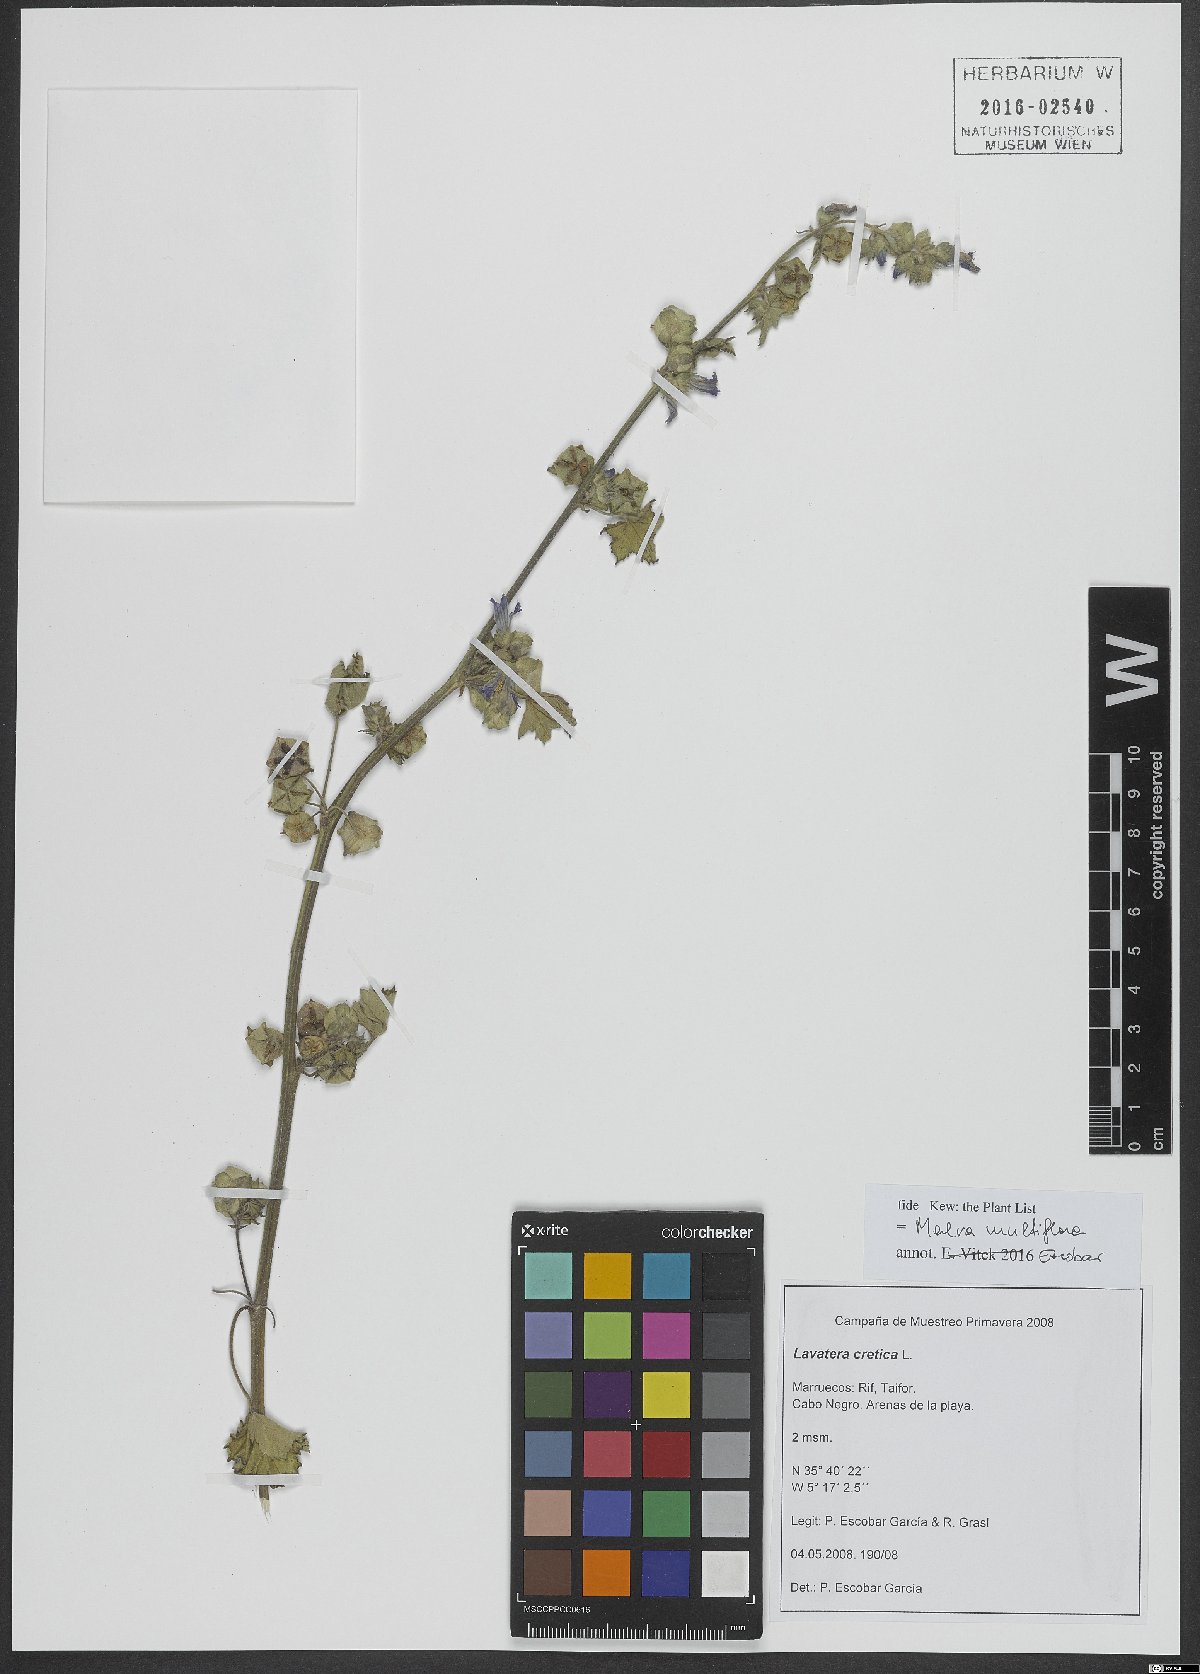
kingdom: Plantae
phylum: Tracheophyta
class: Magnoliopsida
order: Malvales
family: Malvaceae
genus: Malva
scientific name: Malva multiflora
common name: Cheeseweed
